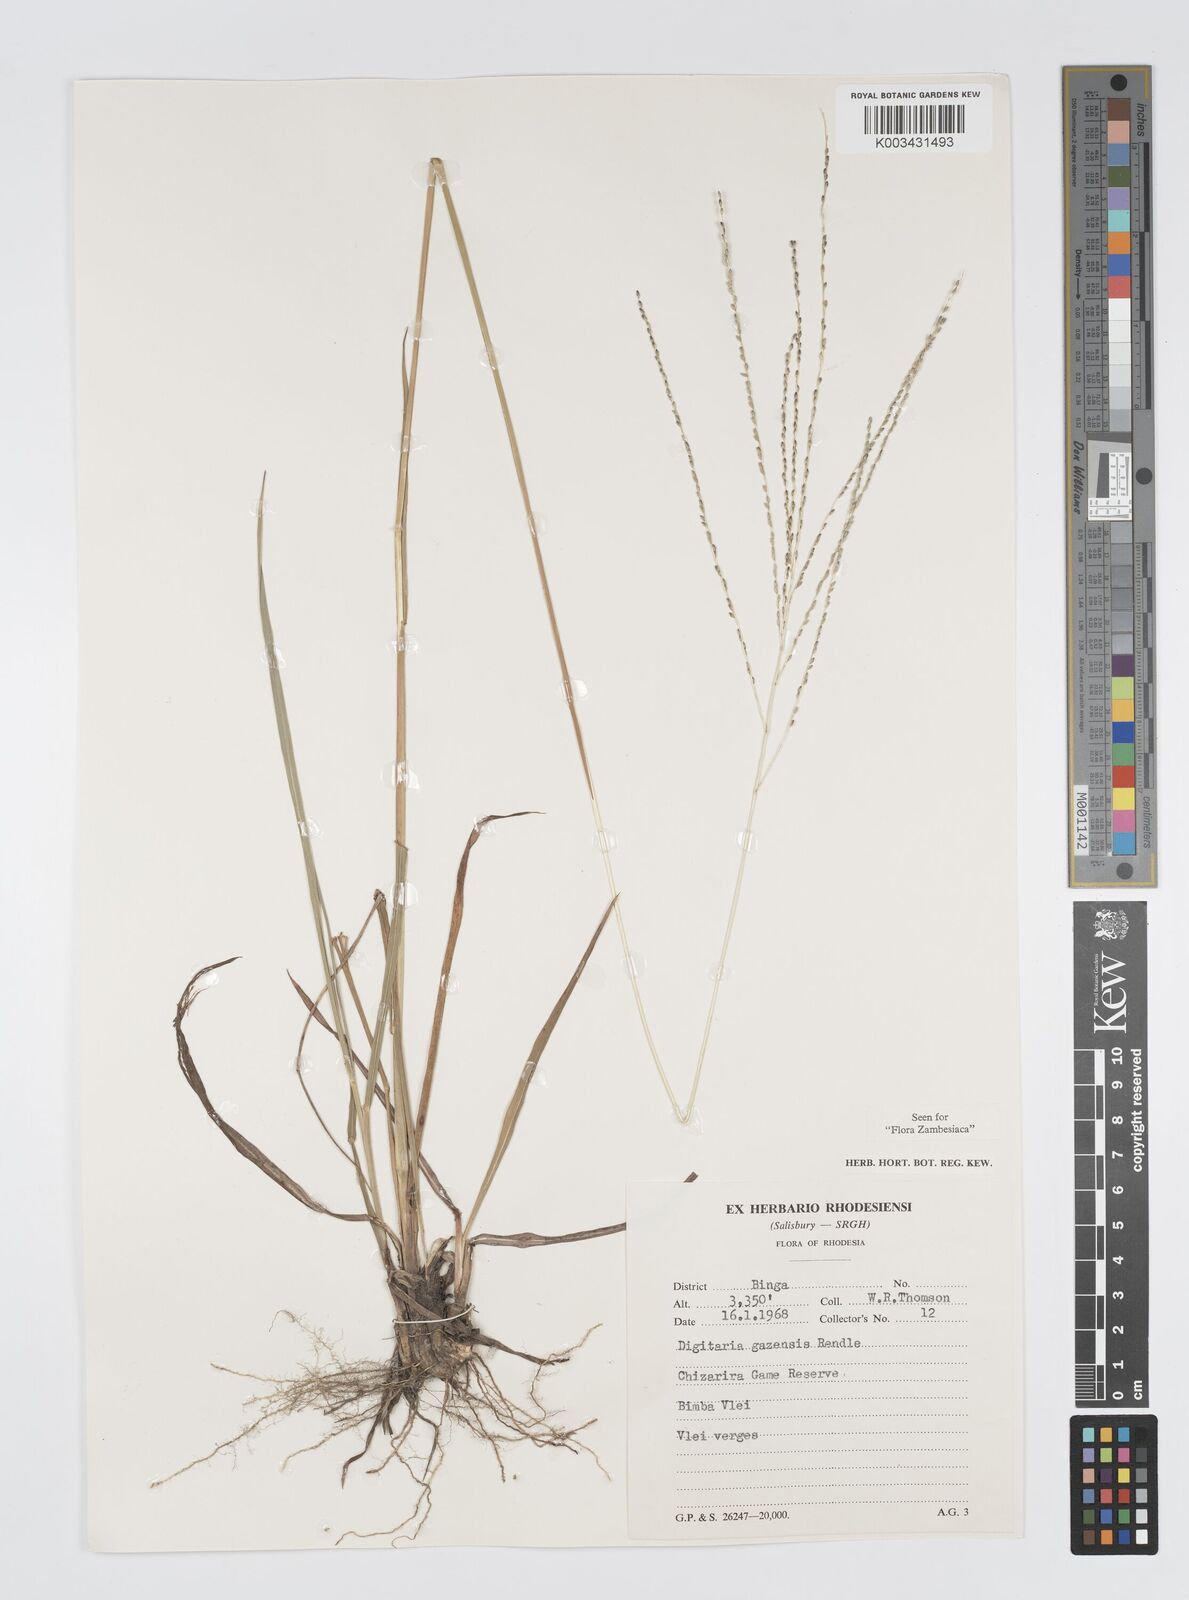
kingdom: Plantae
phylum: Tracheophyta
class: Liliopsida
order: Poales
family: Poaceae
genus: Digitaria
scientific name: Digitaria gazensis
